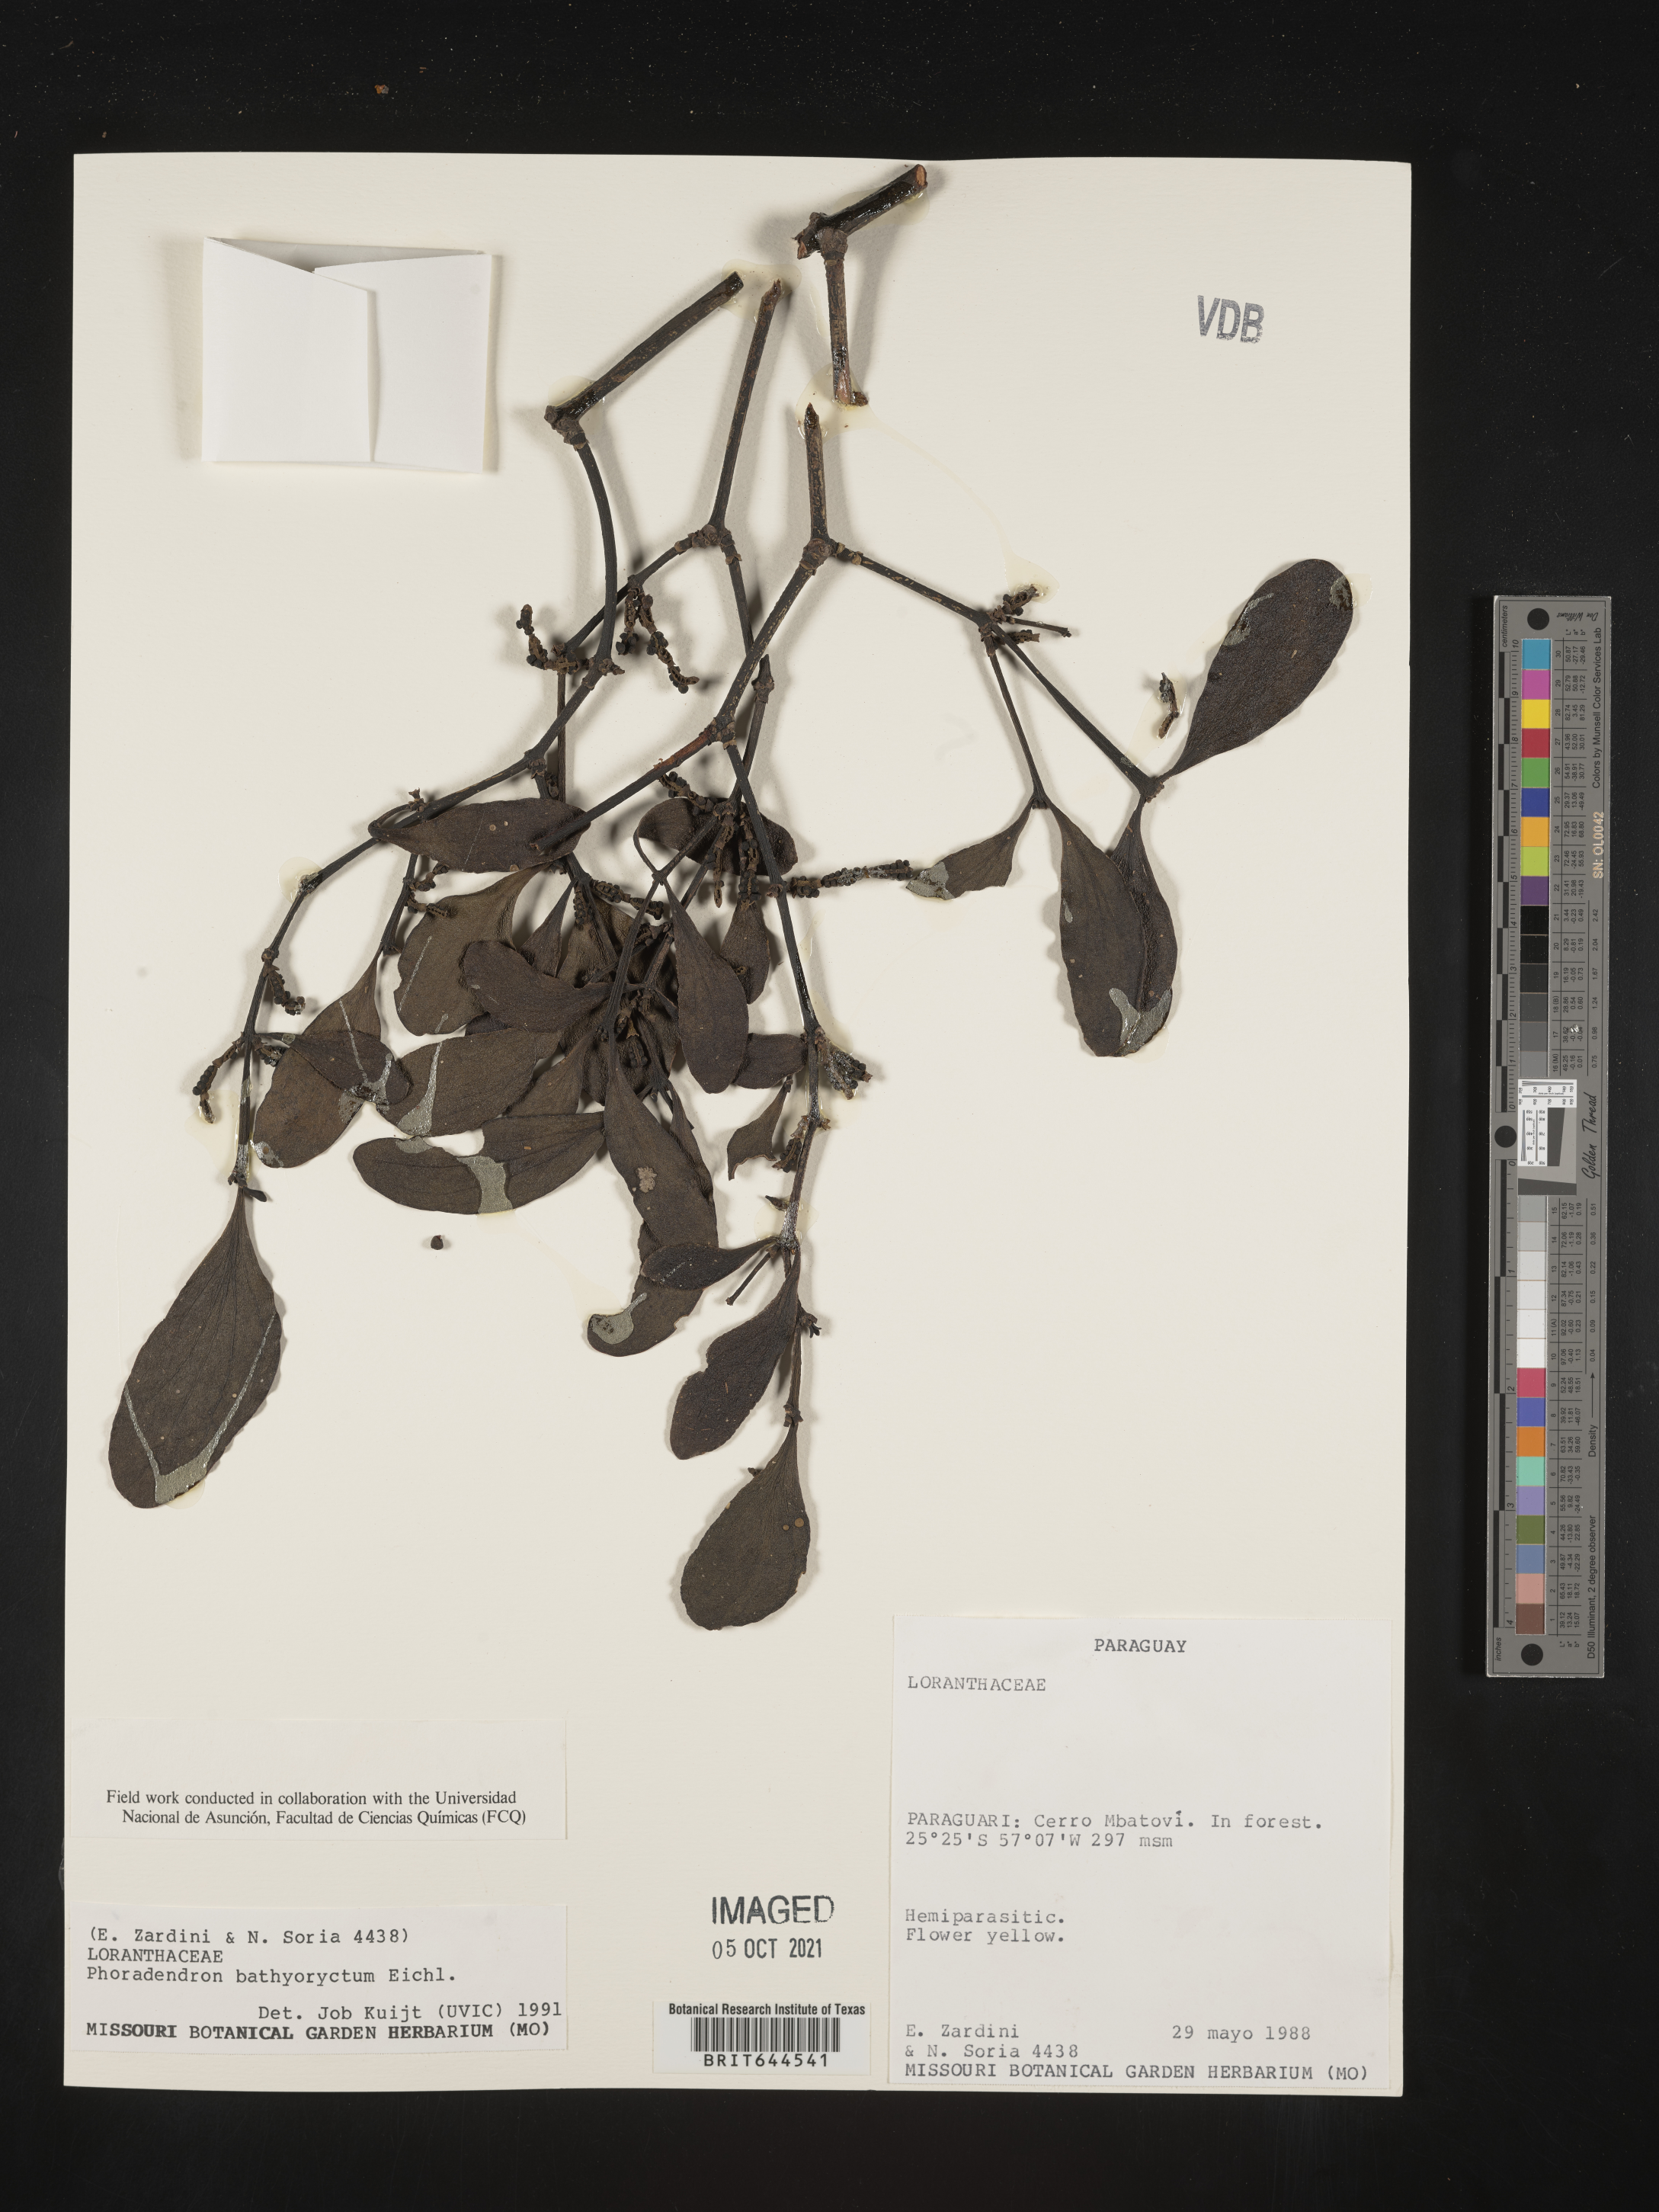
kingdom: Plantae
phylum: Tracheophyta
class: Magnoliopsida
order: Santalales
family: Viscaceae
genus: Phoradendron
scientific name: Phoradendron
